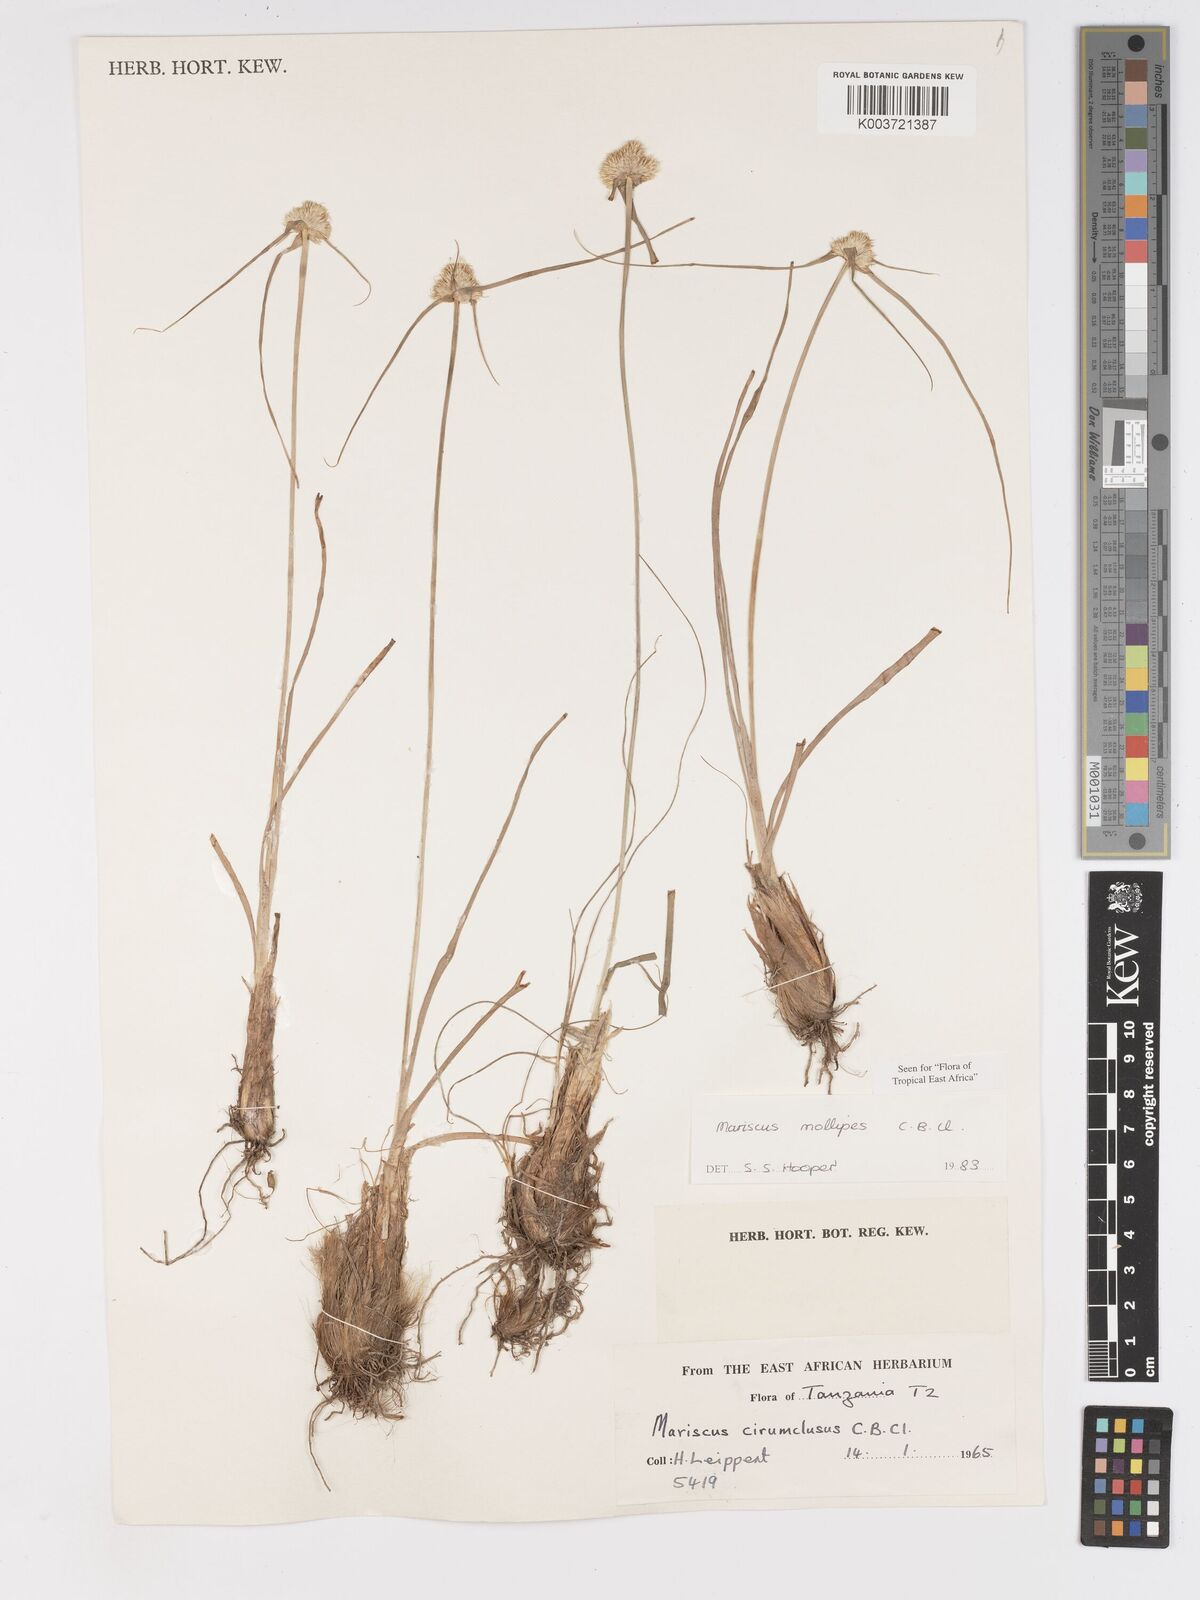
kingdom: Plantae
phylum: Tracheophyta
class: Liliopsida
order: Poales
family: Cyperaceae
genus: Cyperus
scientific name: Cyperus mollipes
